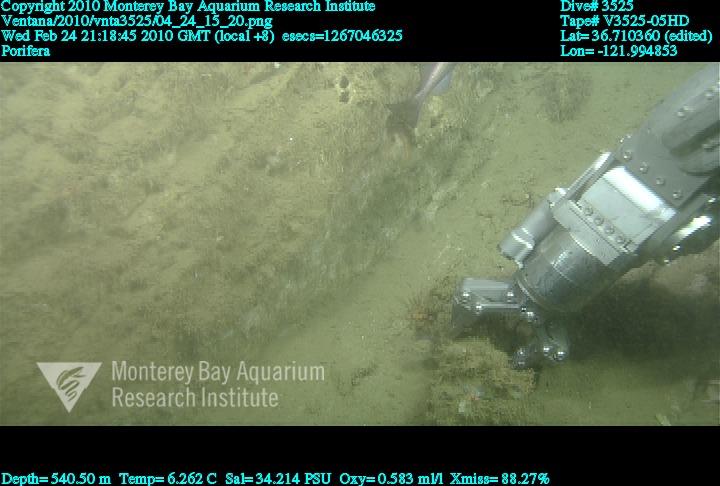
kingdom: Animalia
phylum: Porifera
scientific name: Porifera
